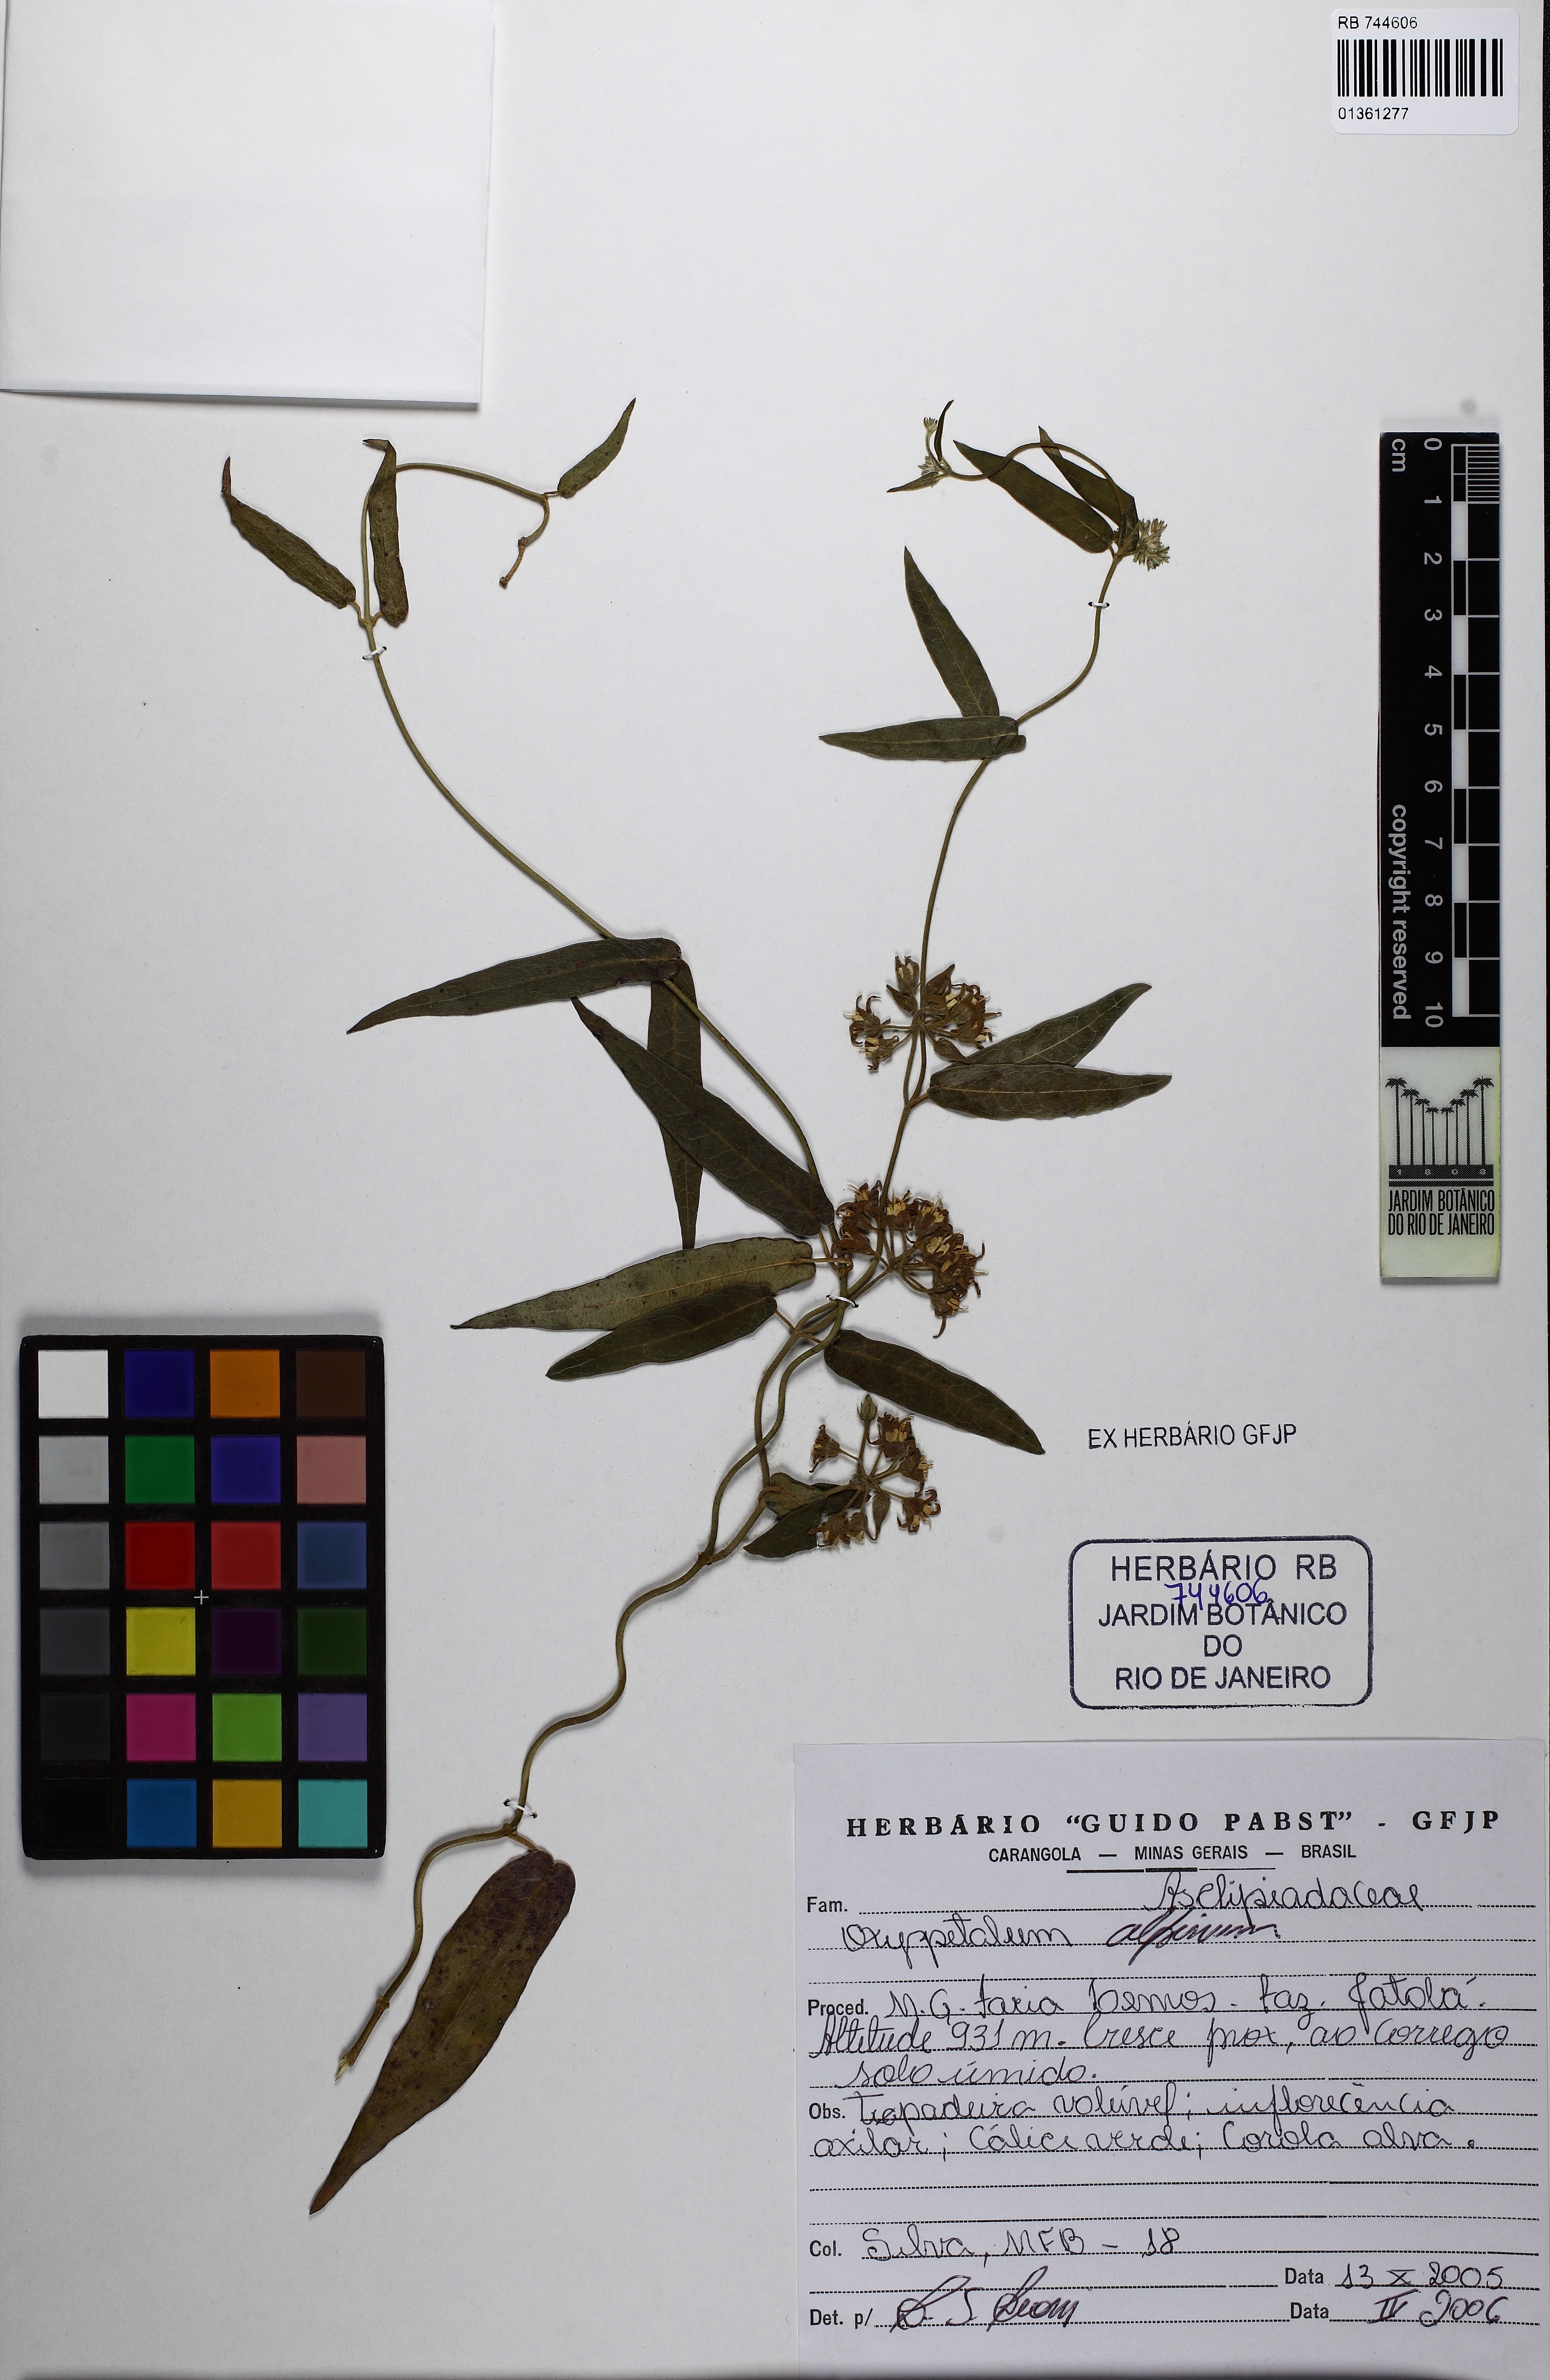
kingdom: Plantae
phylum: Tracheophyta
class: Magnoliopsida
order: Gentianales
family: Apocynaceae
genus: Oxypetalum
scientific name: Oxypetalum alpinum
